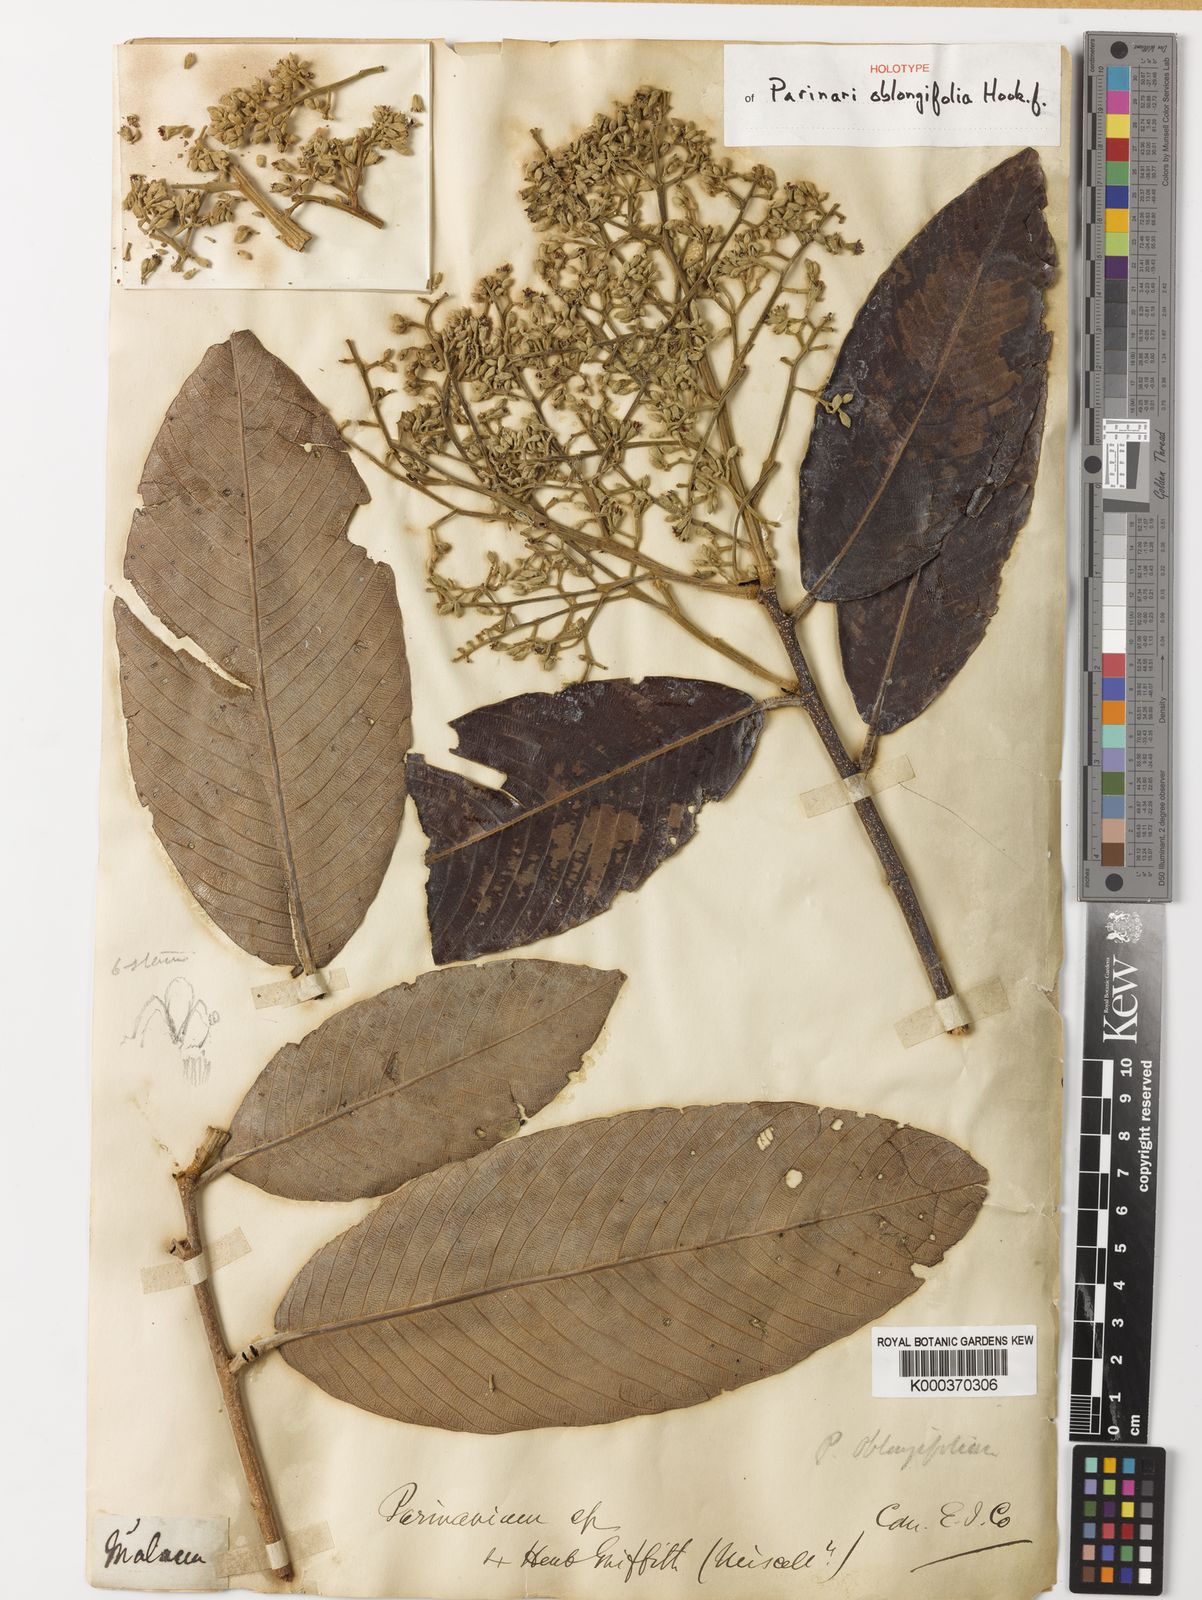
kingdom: Plantae
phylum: Tracheophyta
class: Magnoliopsida
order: Malpighiales
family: Chrysobalanaceae
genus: Parinari
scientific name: Parinari oblongifolia
